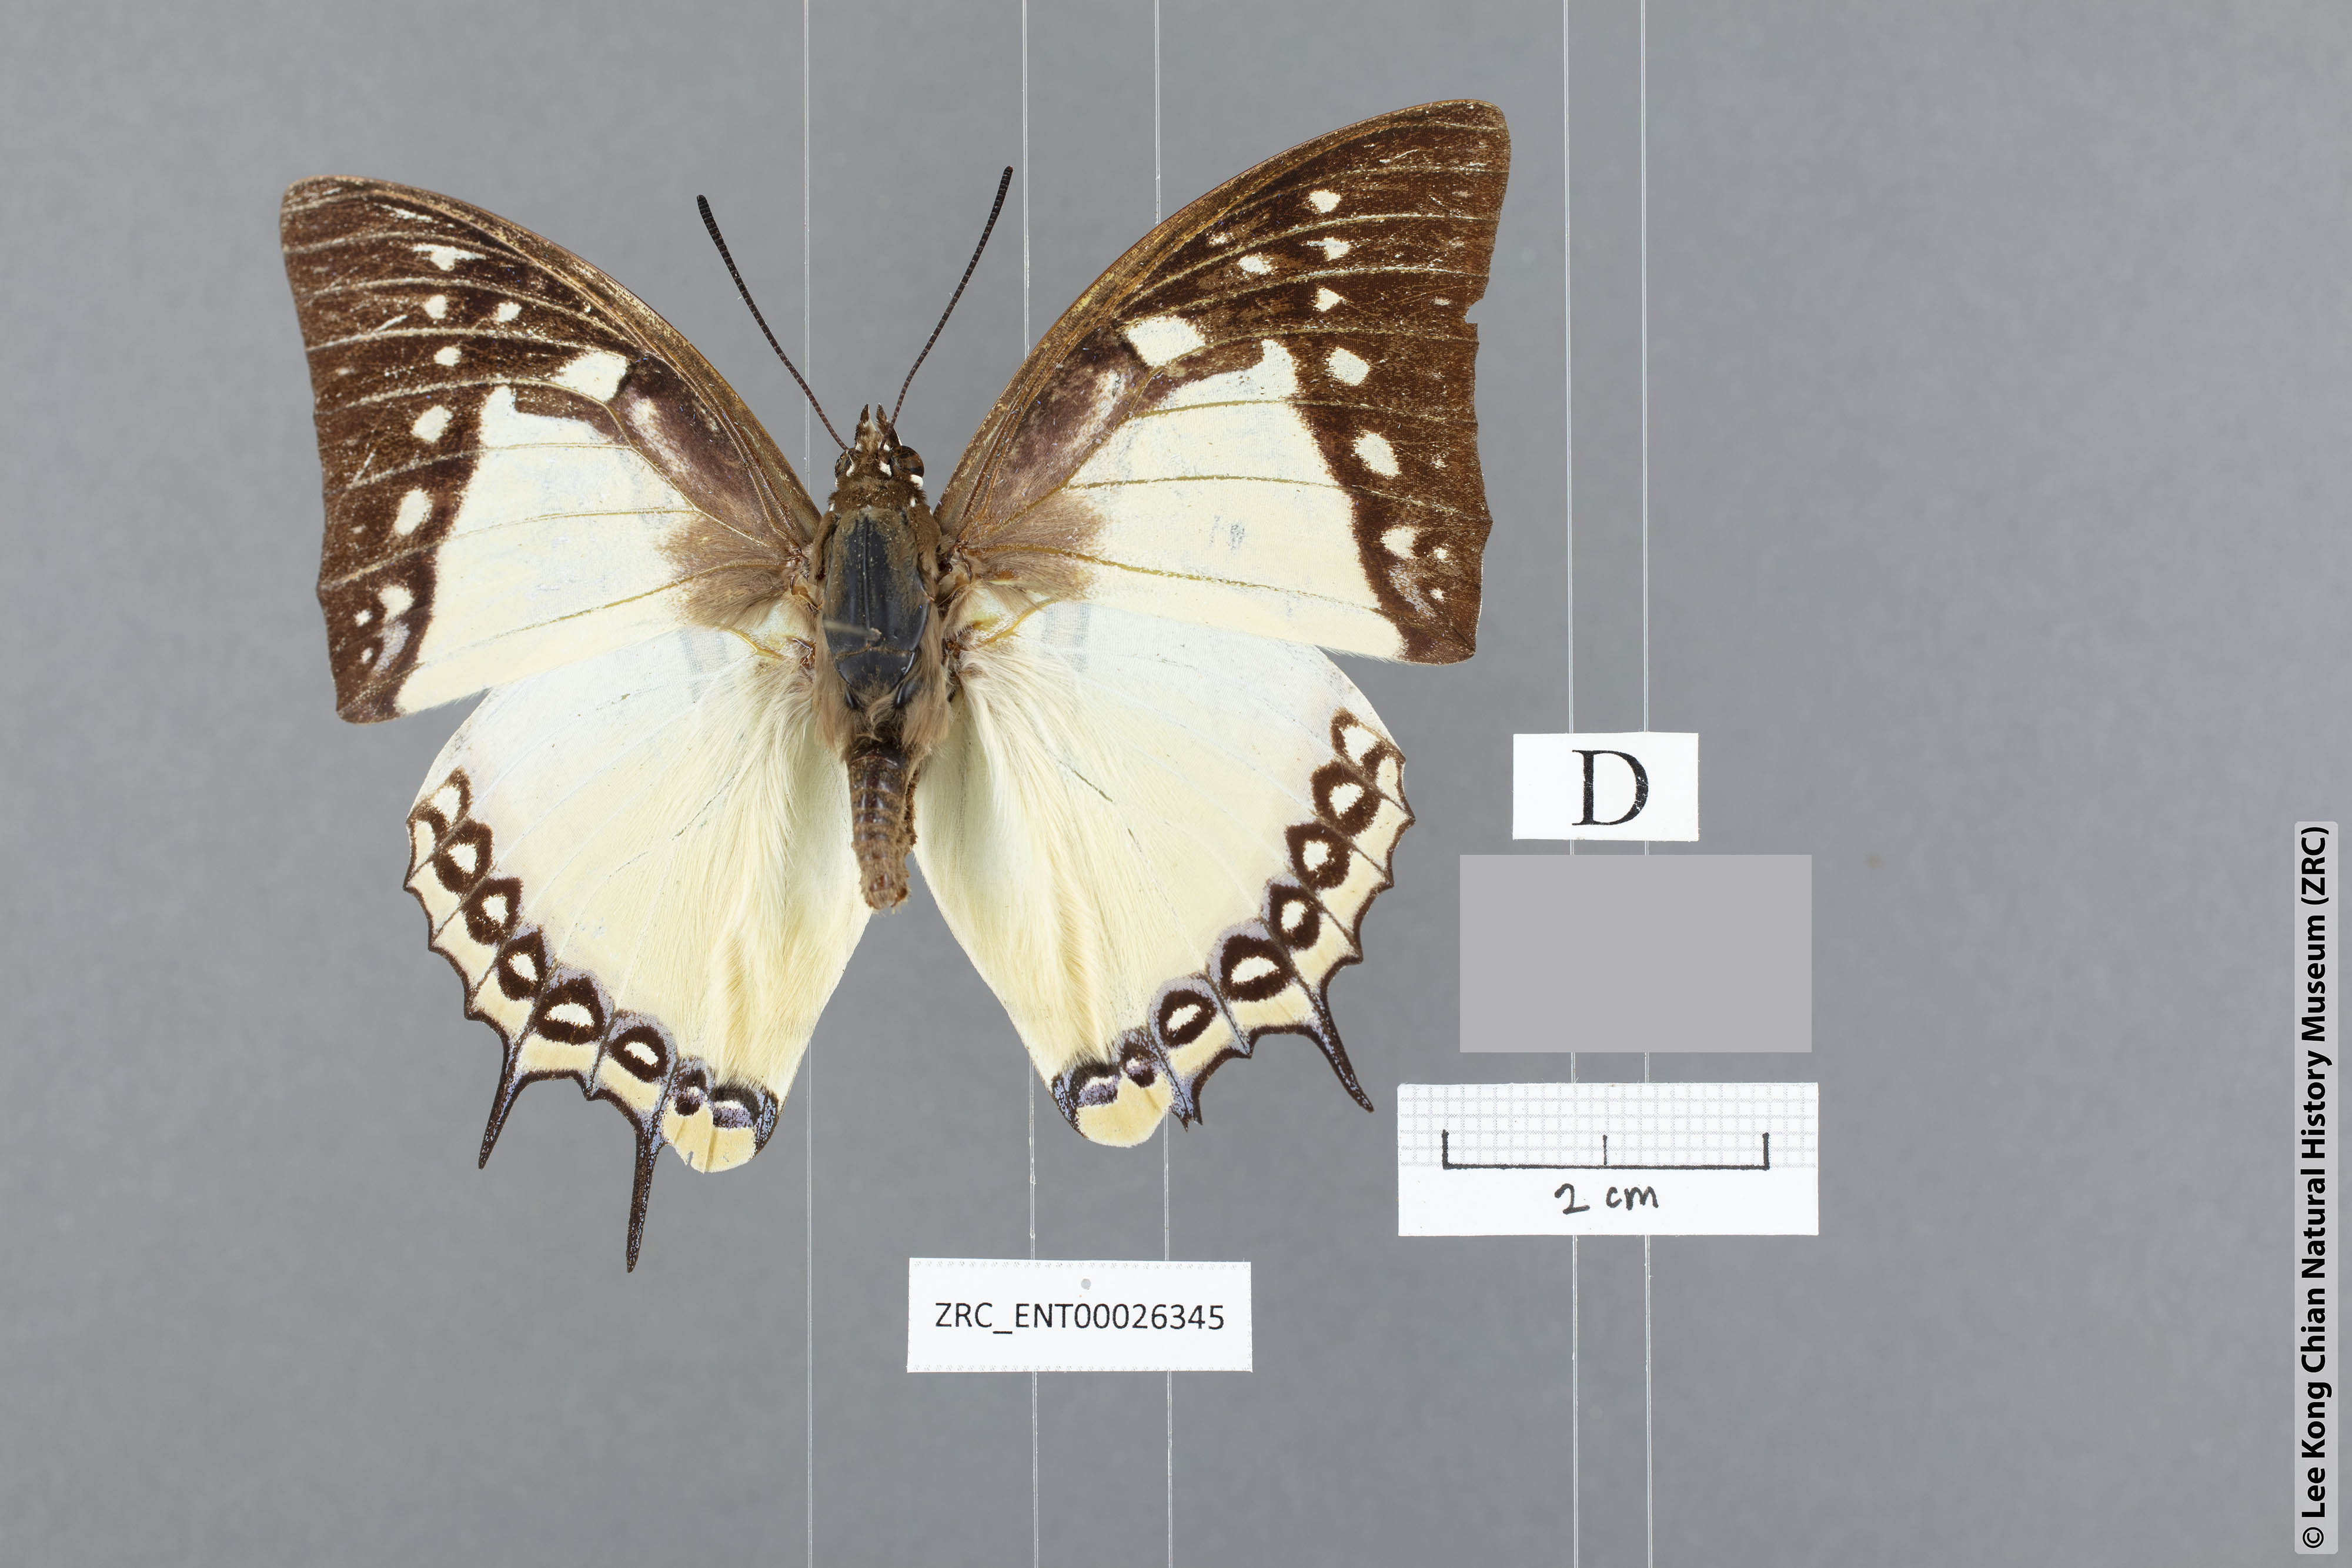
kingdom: Animalia
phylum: Arthropoda
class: Insecta
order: Lepidoptera
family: Nymphalidae
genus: Polyura
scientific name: Polyura eudamippus
